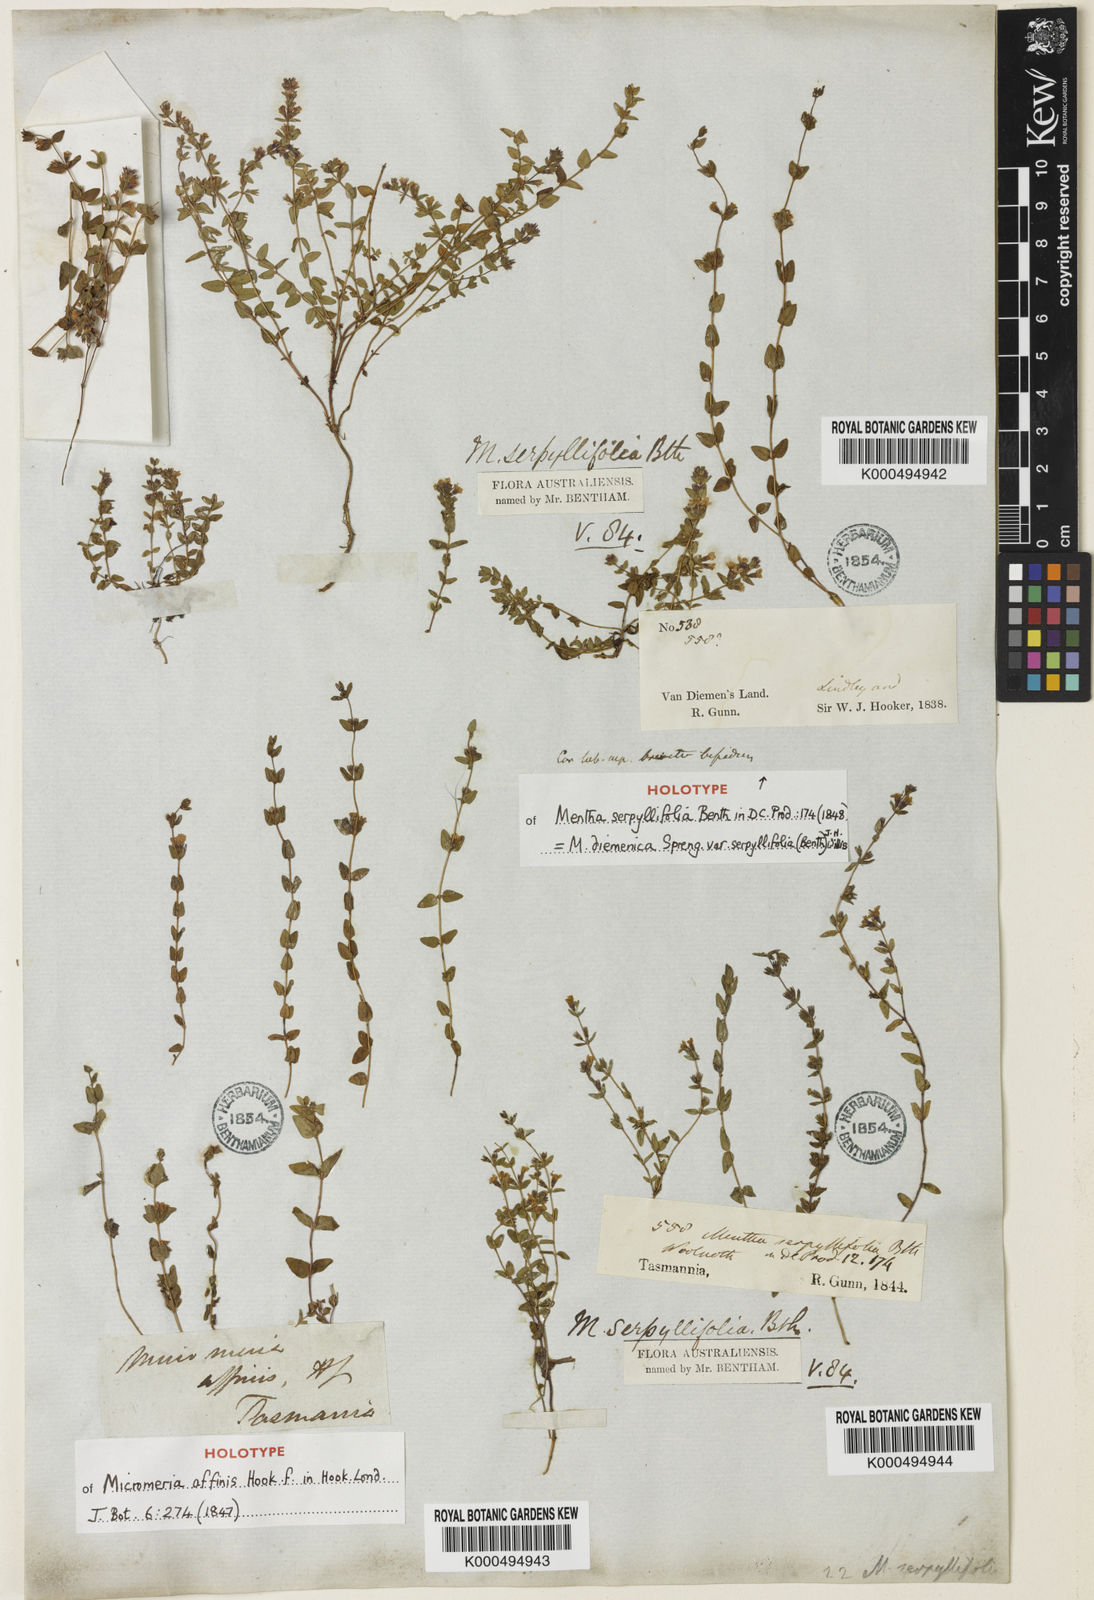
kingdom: Plantae
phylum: Tracheophyta
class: Magnoliopsida
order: Lamiales
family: Lamiaceae
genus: Mentha
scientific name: Mentha diemenica
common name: Wild mint
